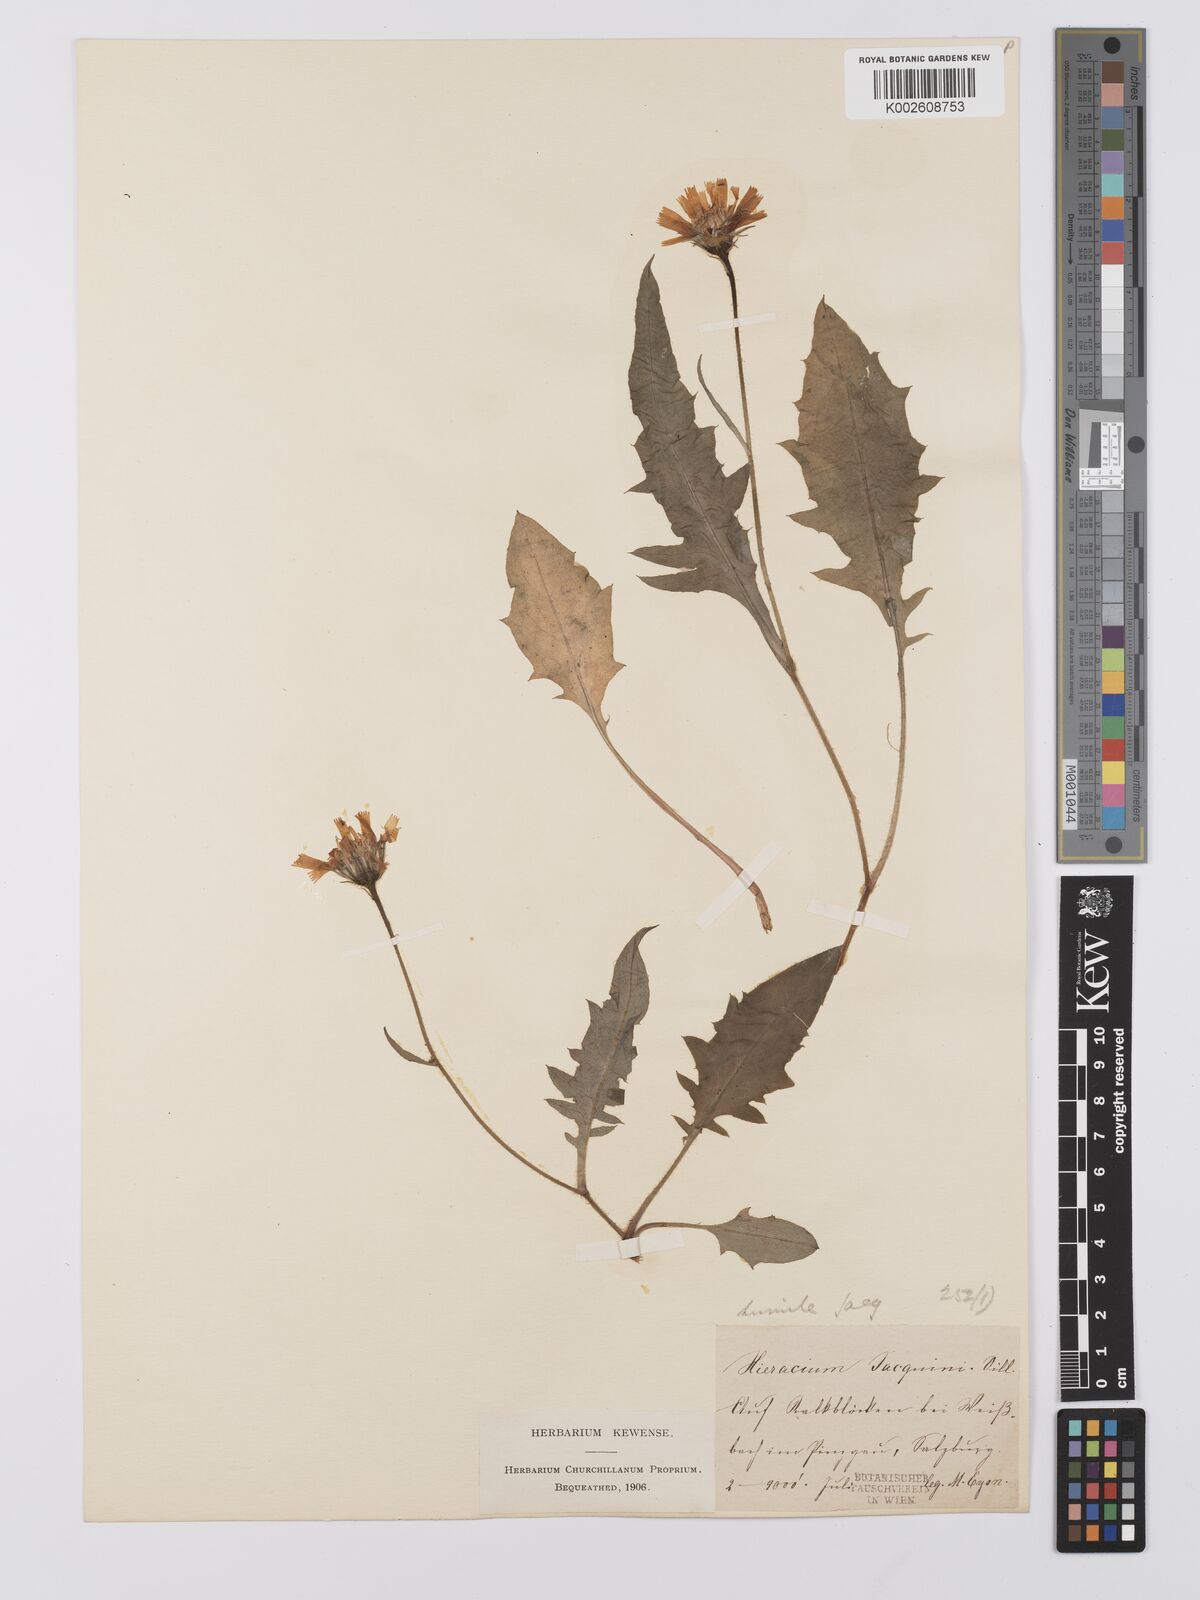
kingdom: Plantae
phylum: Tracheophyta
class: Magnoliopsida
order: Asterales
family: Asteraceae
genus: Hieracium
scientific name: Hieracium humile
